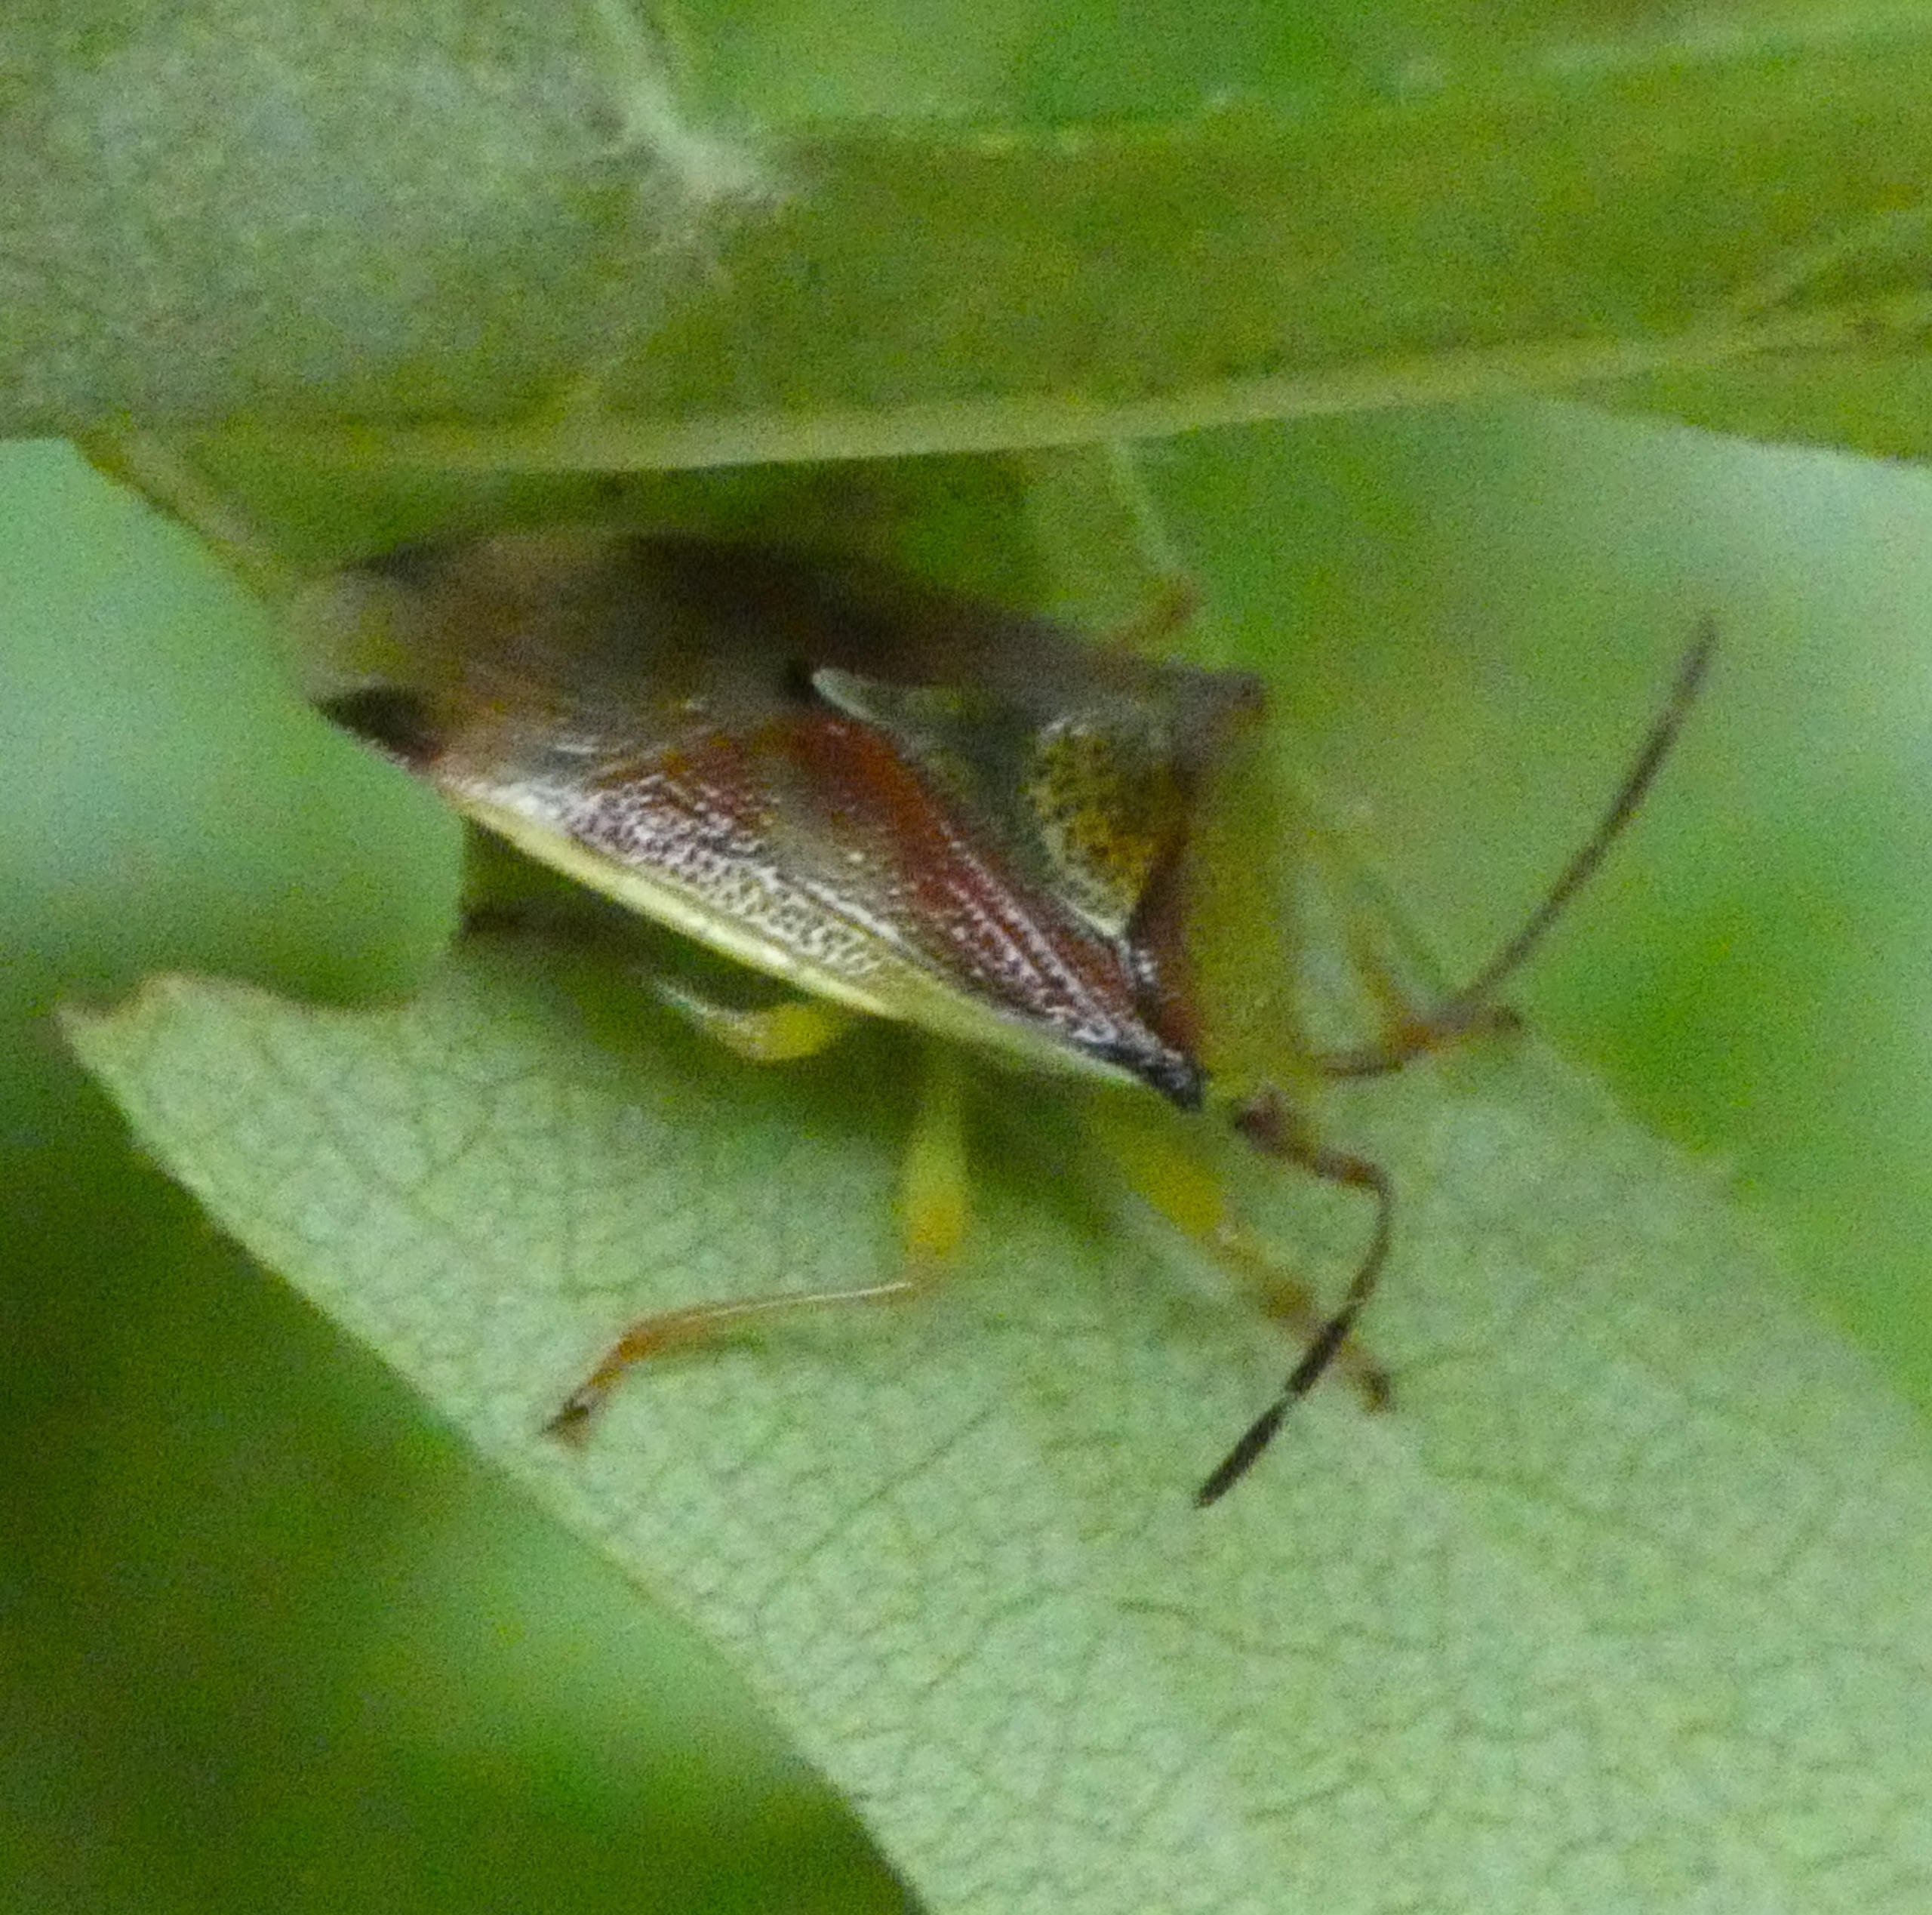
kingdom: Animalia
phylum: Arthropoda
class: Insecta
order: Hemiptera
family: Acanthosomatidae
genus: Elasmostethus
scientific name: Elasmostethus interstinctus
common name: Almindelig løvtæge
